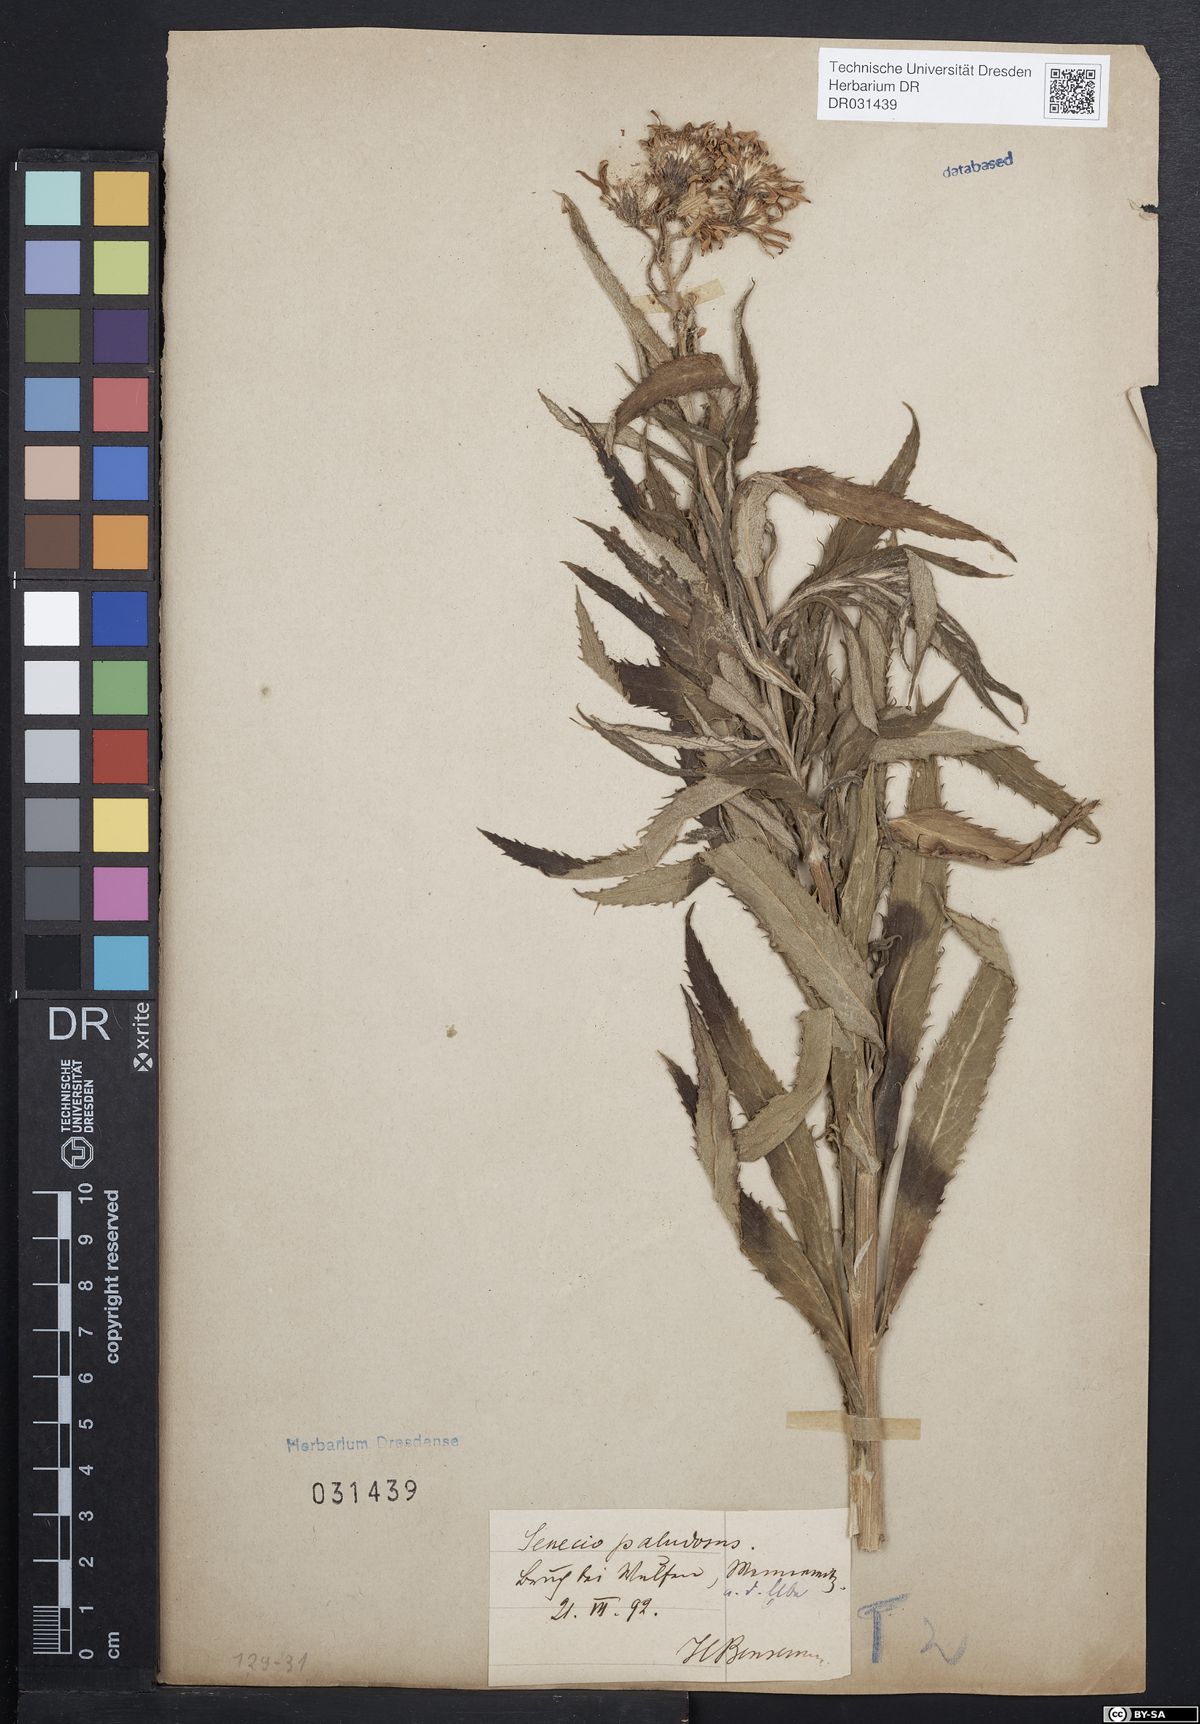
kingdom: Plantae
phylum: Tracheophyta
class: Magnoliopsida
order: Asterales
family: Asteraceae
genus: Jacobaea
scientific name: Jacobaea paludosa
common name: Fen ragwort
